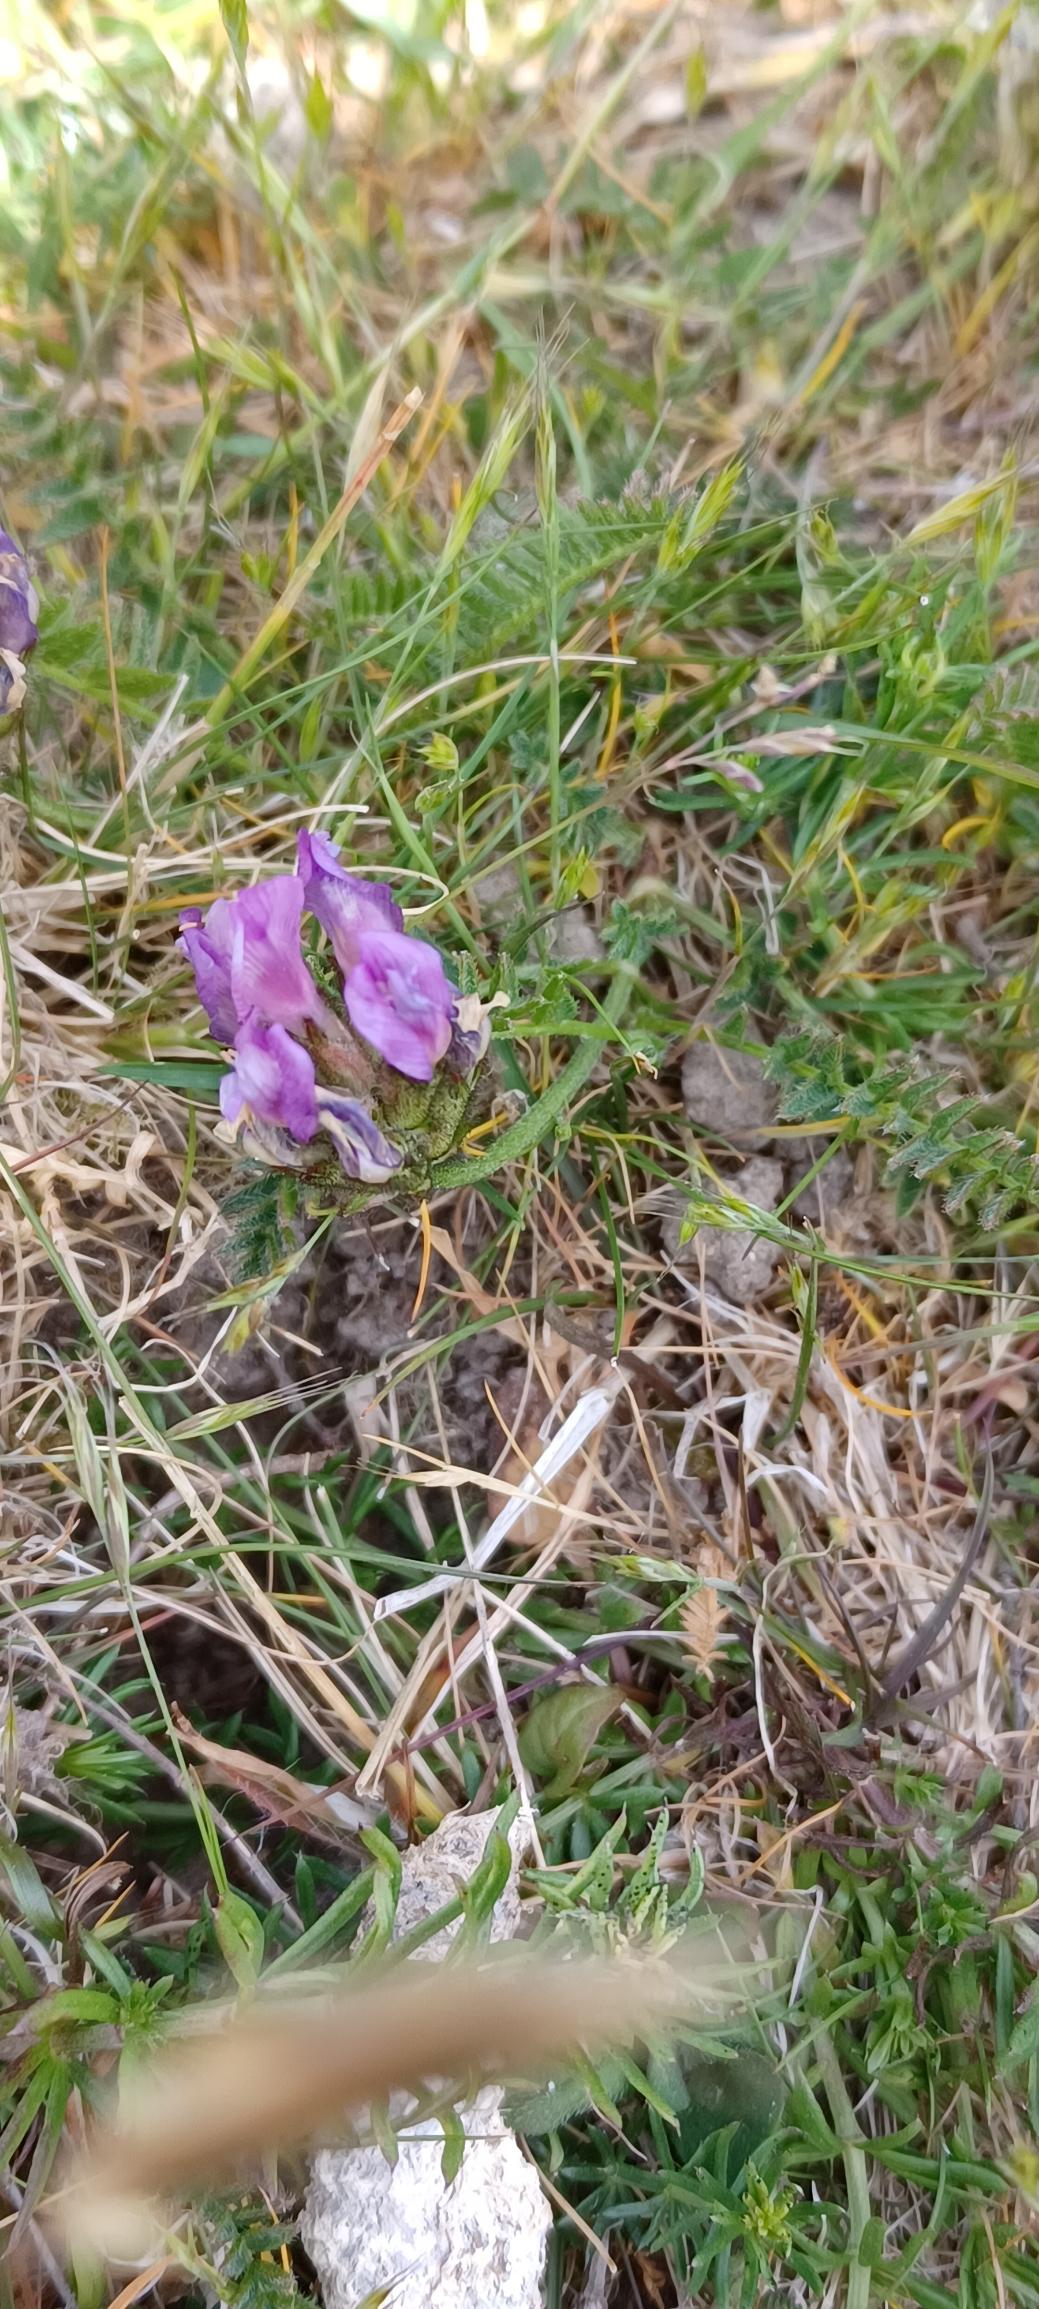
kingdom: Plantae
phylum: Tracheophyta
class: Magnoliopsida
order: Fabales
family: Fabaceae
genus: Astragalus
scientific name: Astragalus danicus
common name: Dansk astragel
